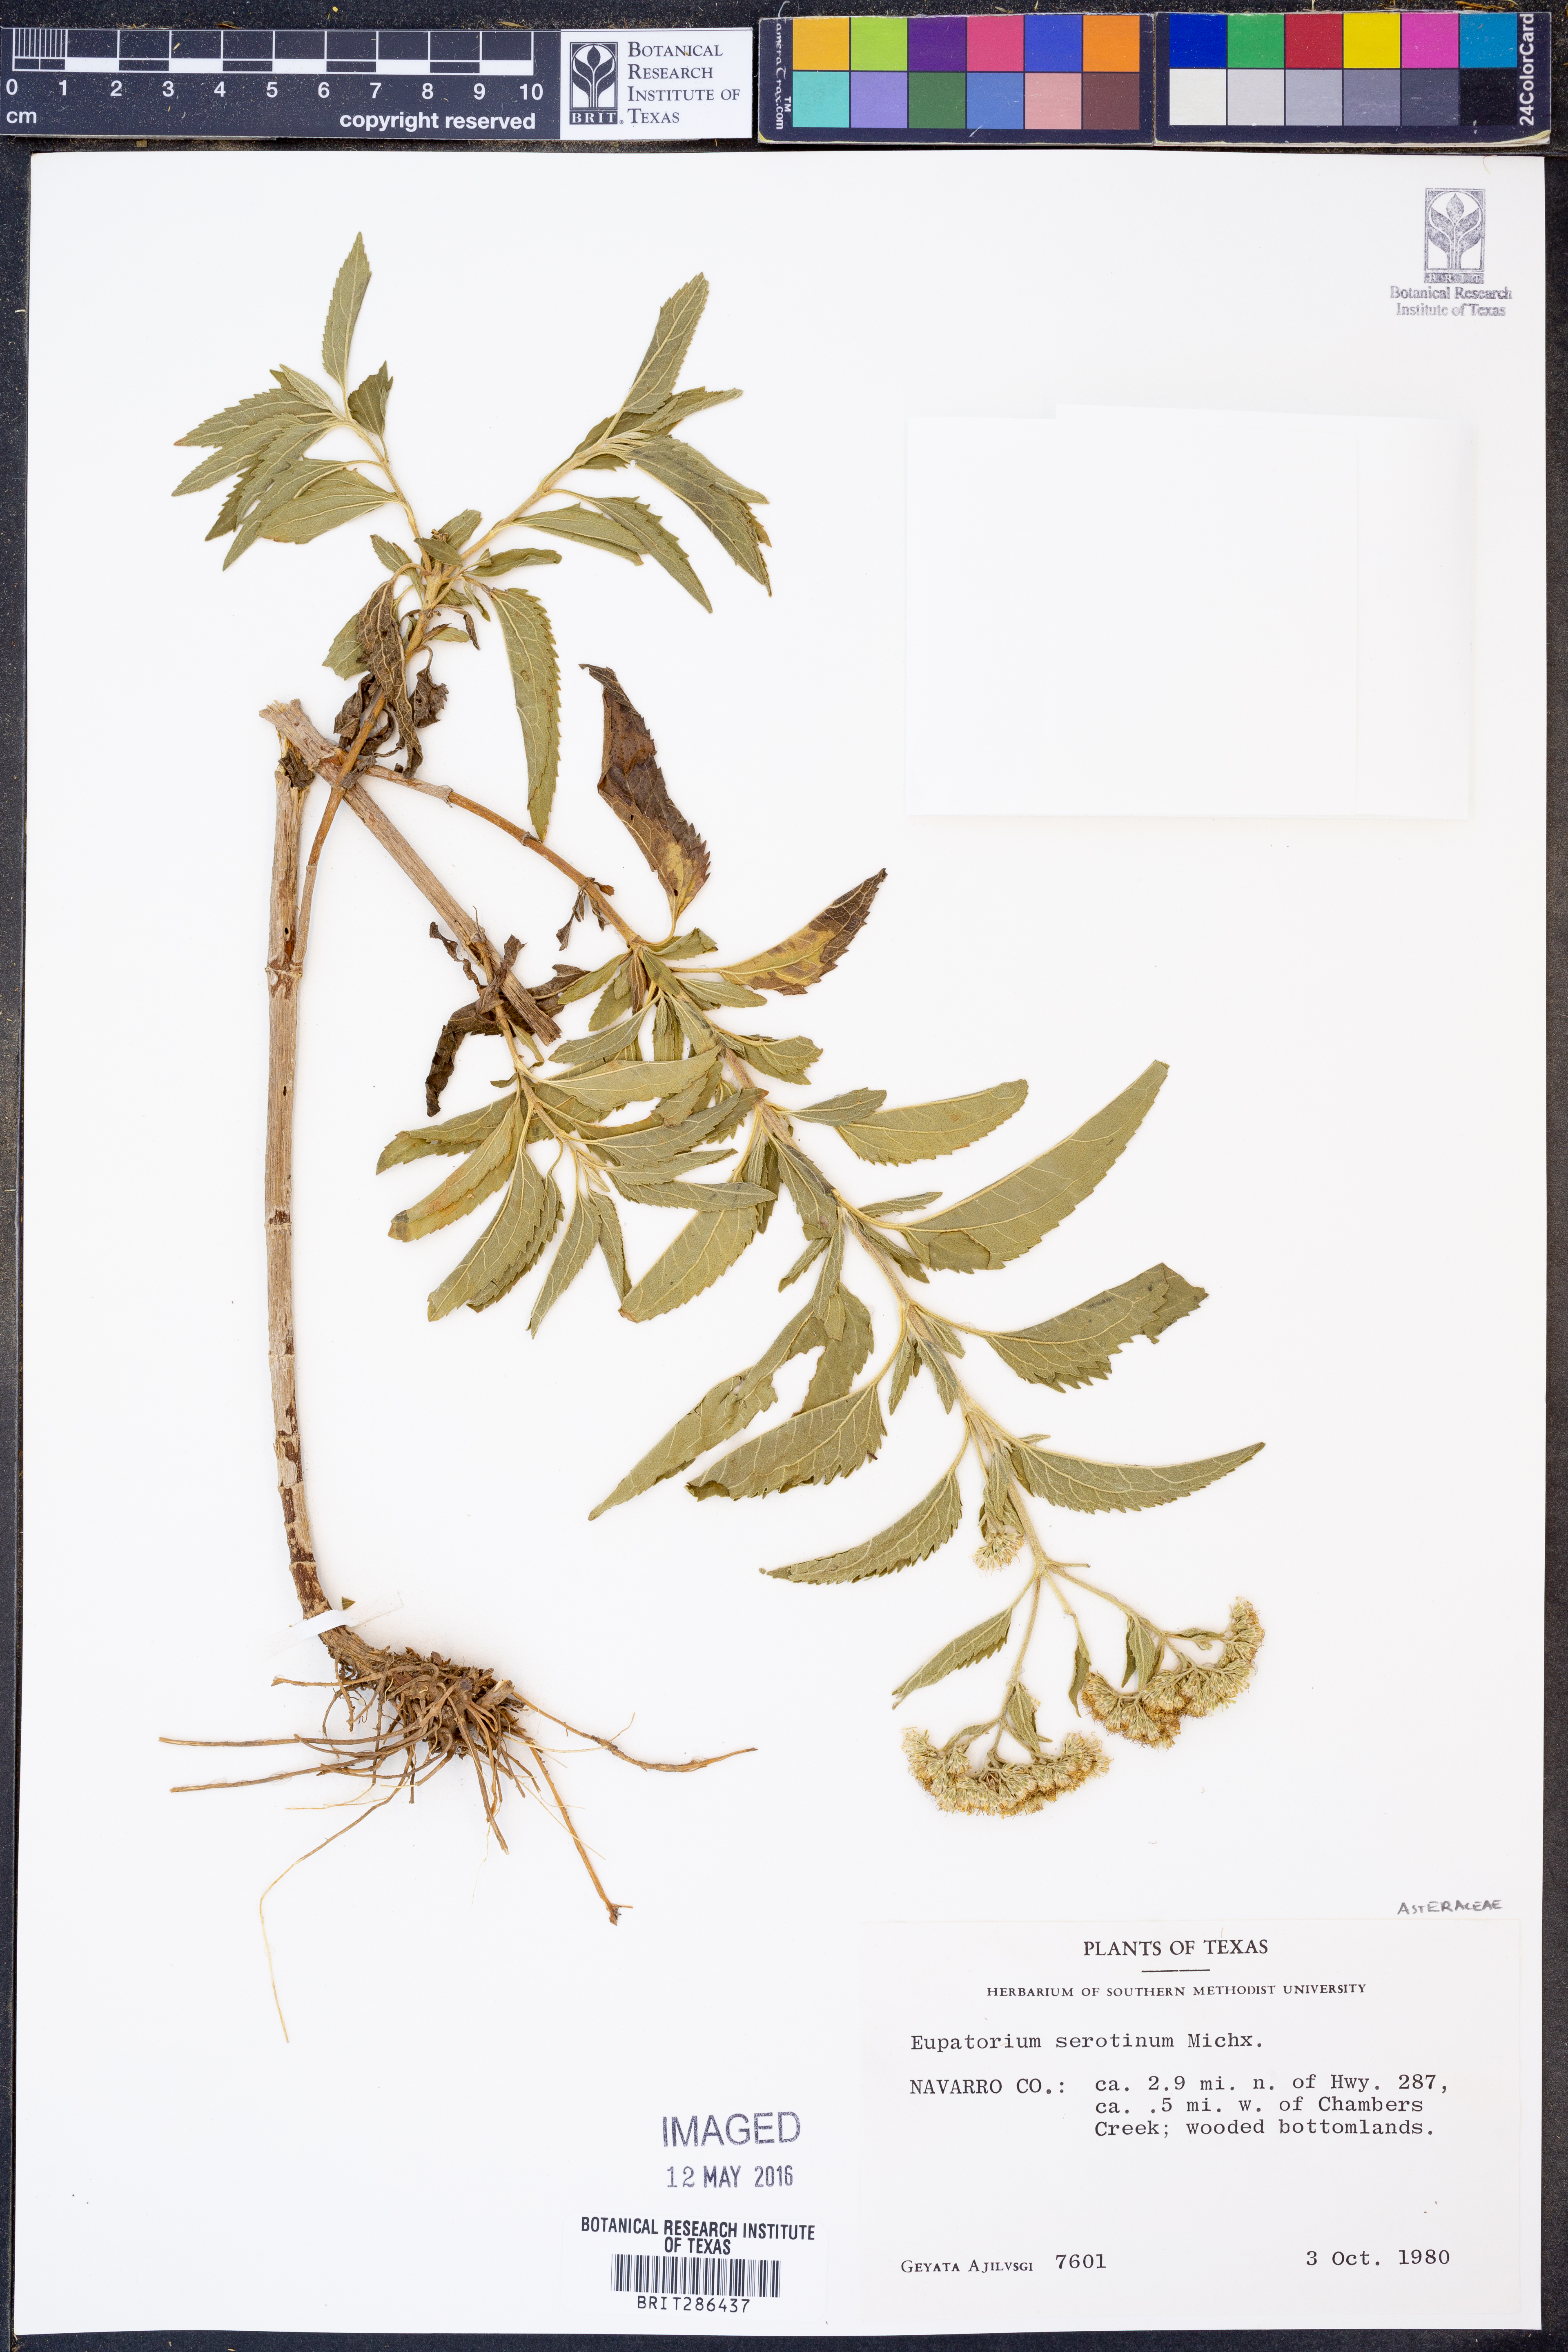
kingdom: Plantae
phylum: Tracheophyta
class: Magnoliopsida
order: Asterales
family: Asteraceae
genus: Eupatorium
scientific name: Eupatorium serotinum
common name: Late boneset
